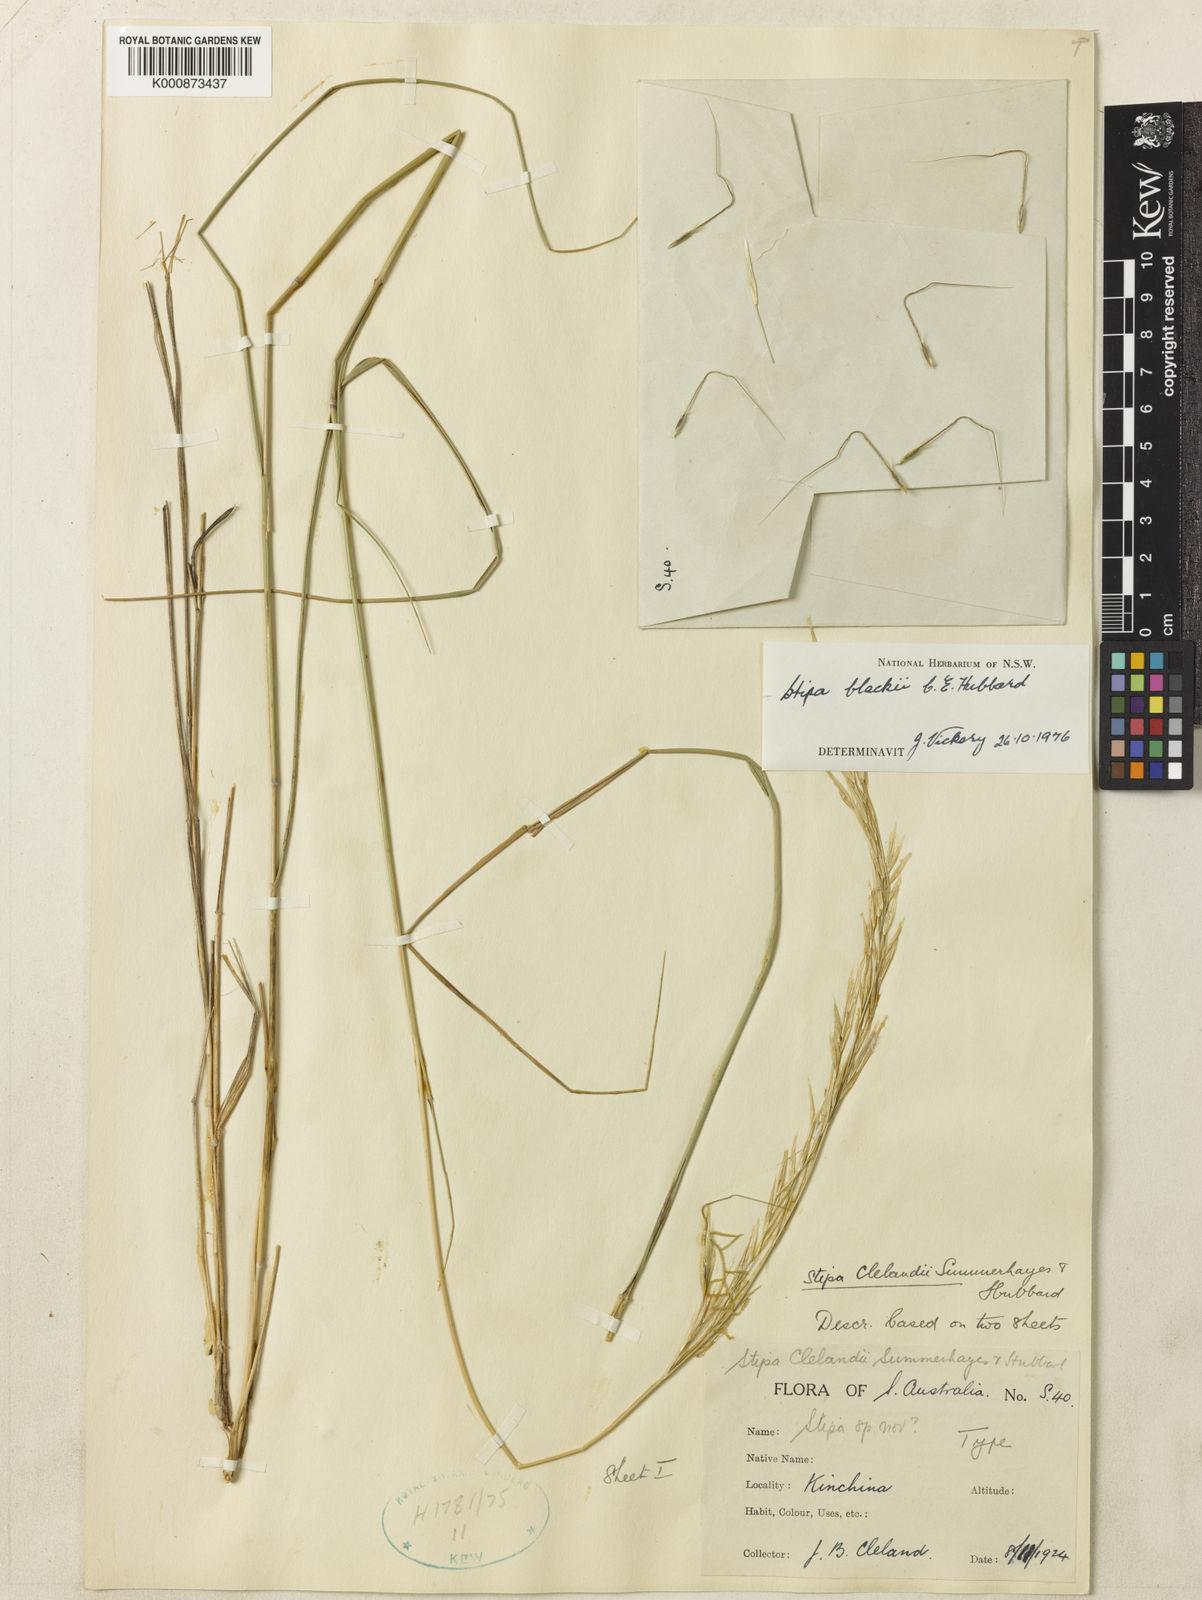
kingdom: Plantae
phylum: Tracheophyta
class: Liliopsida
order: Poales
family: Poaceae
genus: Austrostipa
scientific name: Austrostipa blackii
